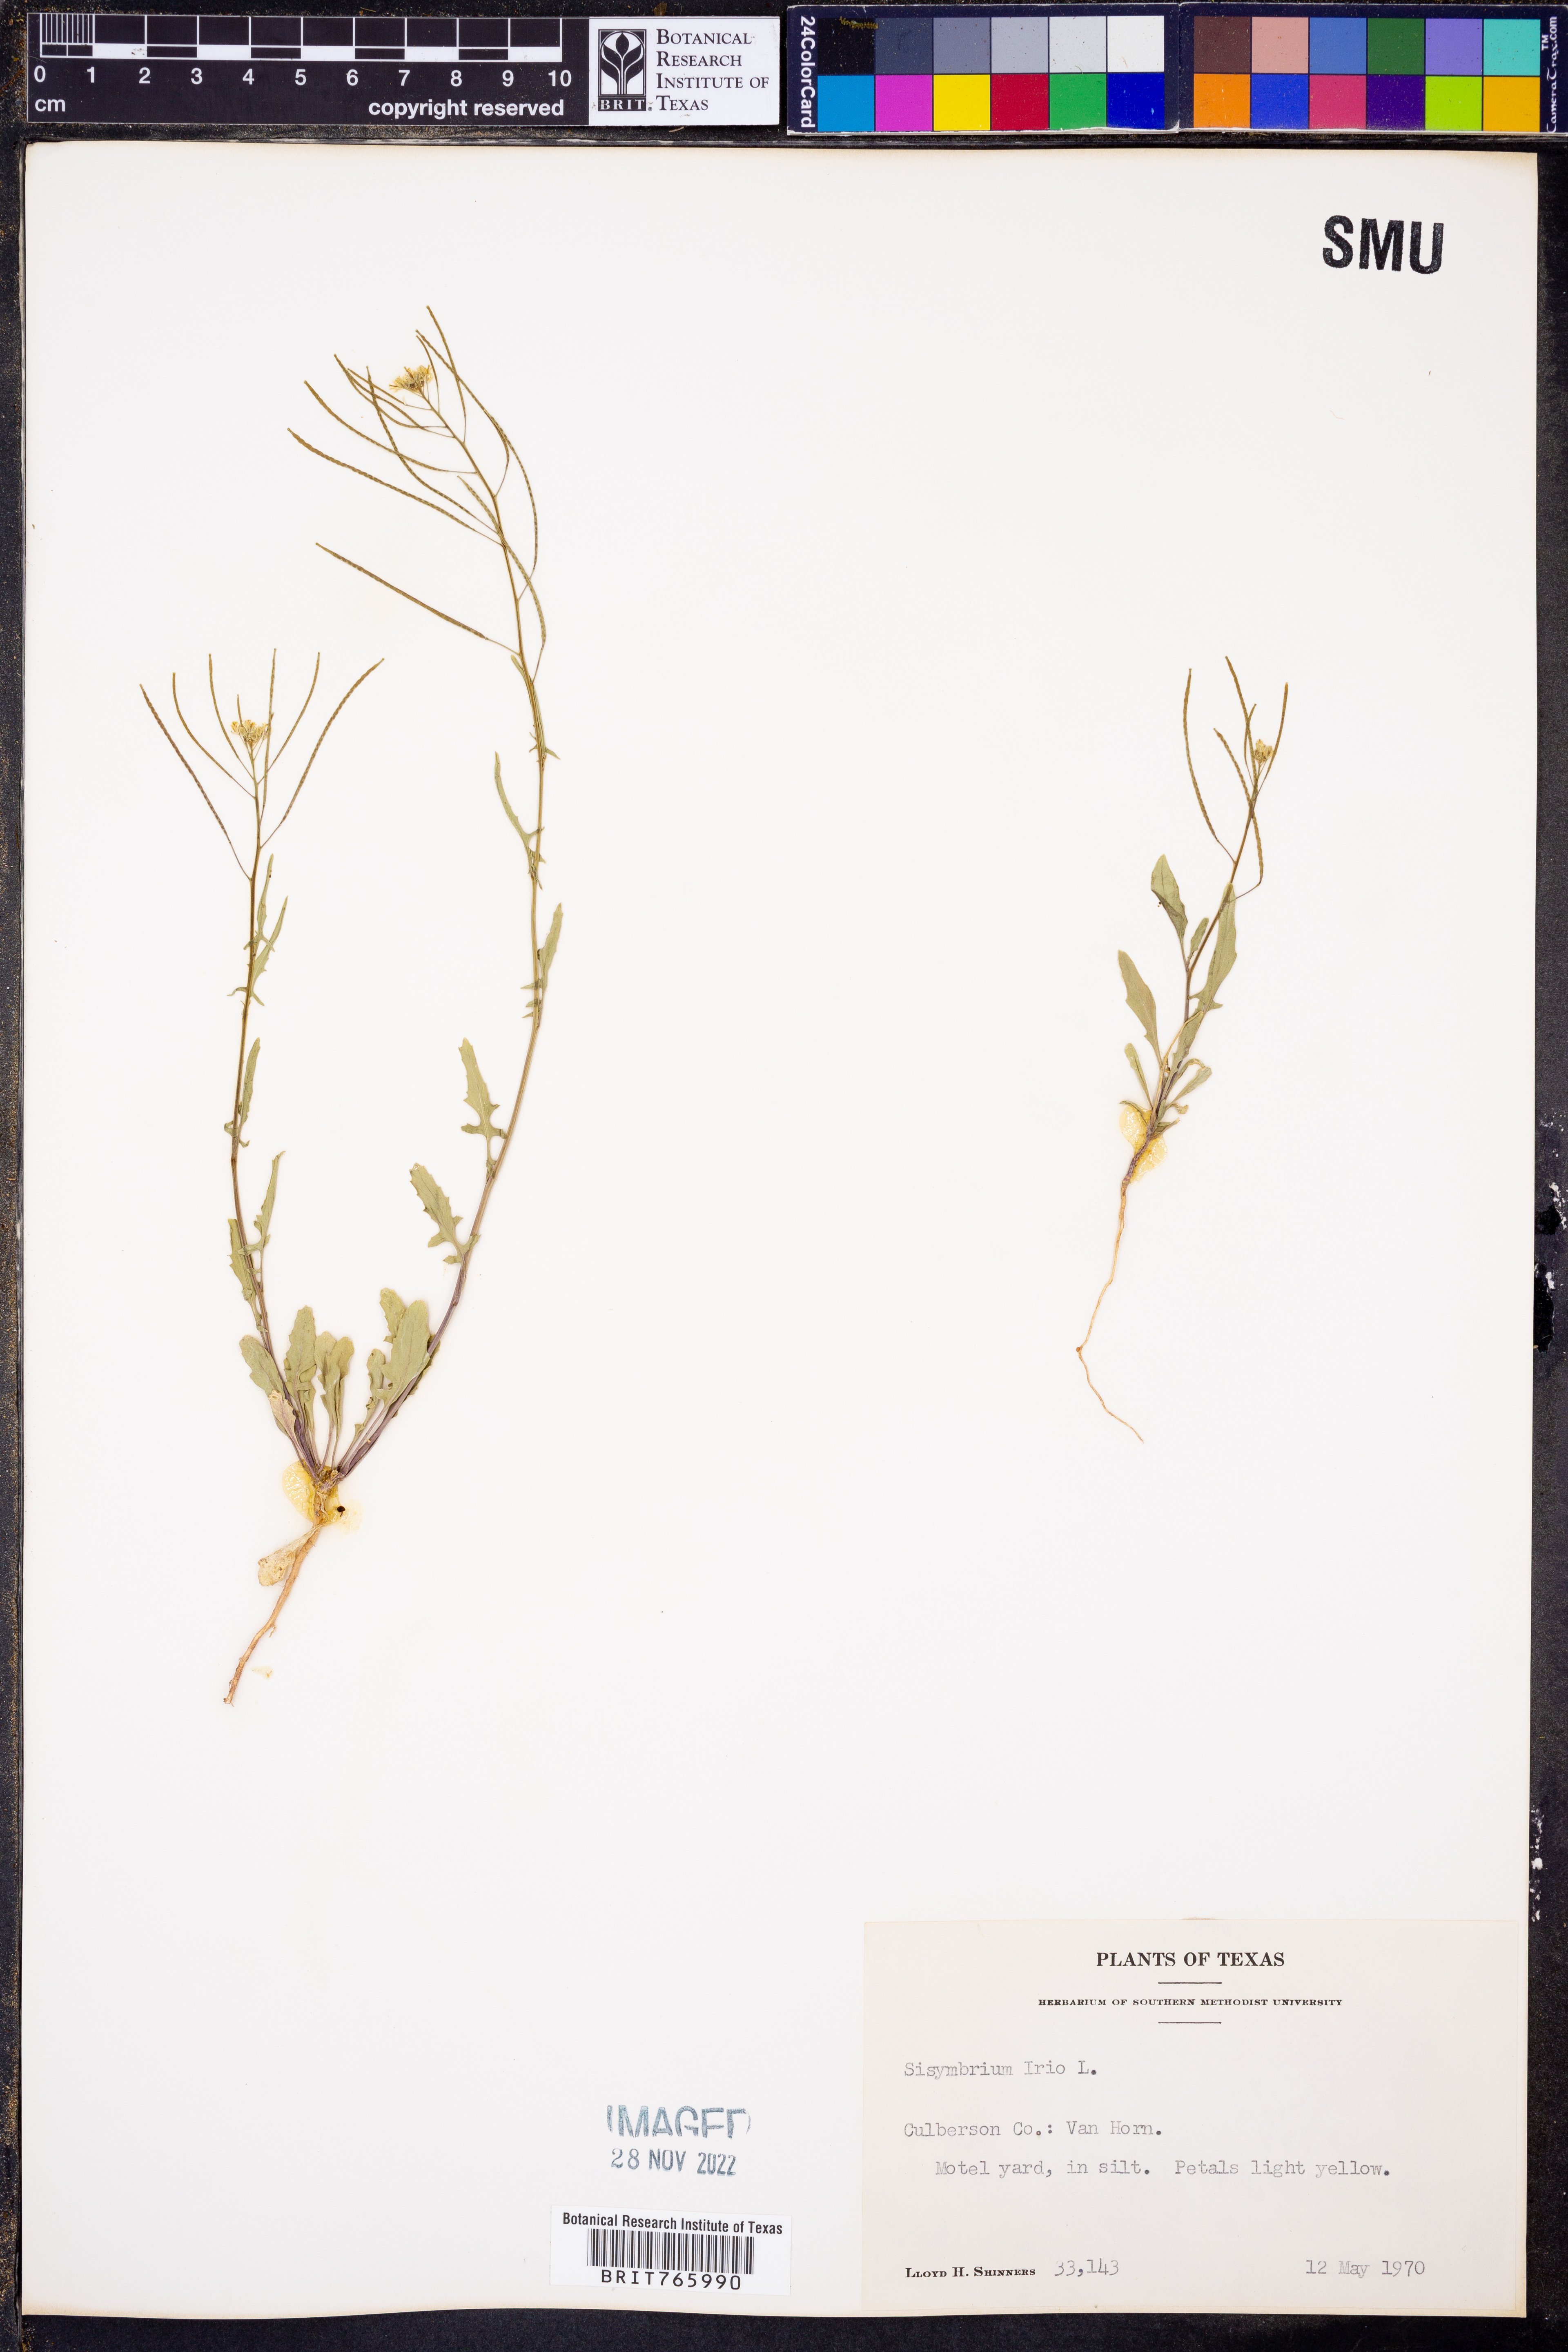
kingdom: Plantae
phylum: Tracheophyta
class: Magnoliopsida
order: Brassicales
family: Brassicaceae
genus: Sisymbrium
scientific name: Sisymbrium
